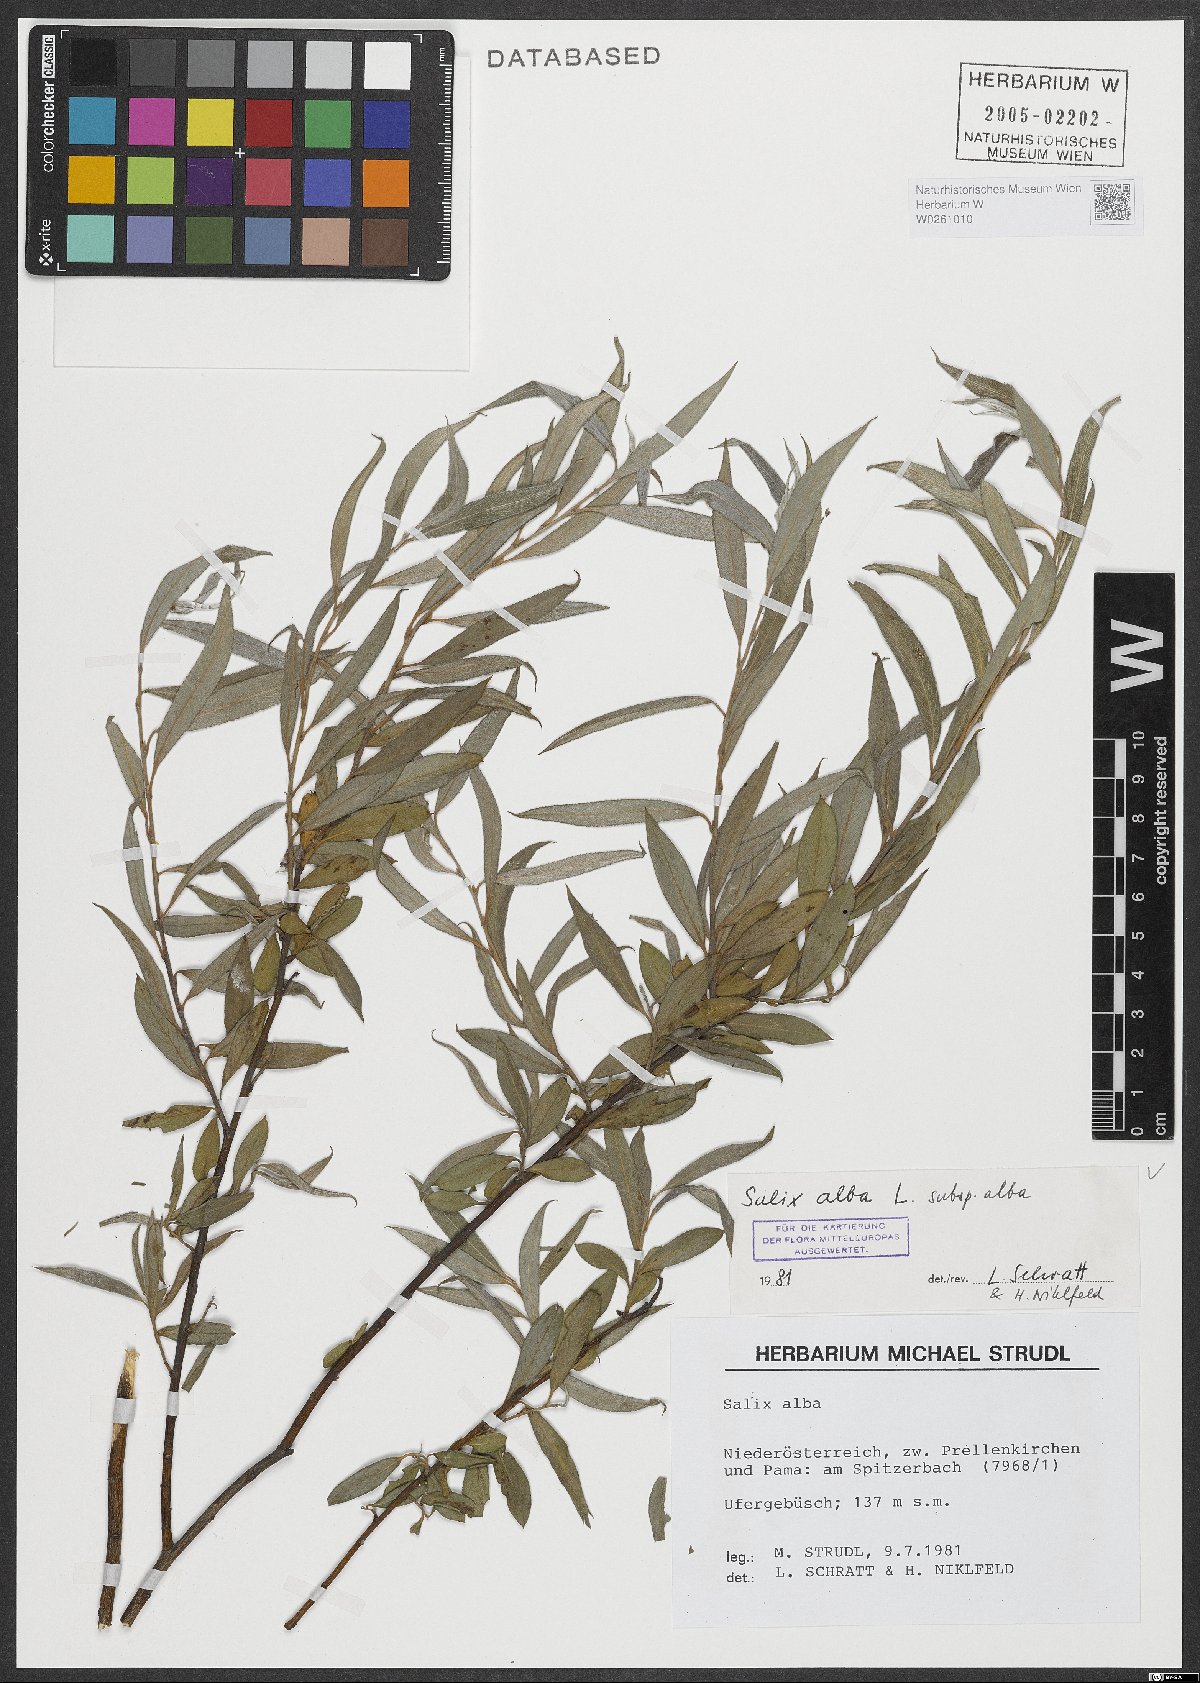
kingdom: Plantae
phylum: Tracheophyta
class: Magnoliopsida
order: Malpighiales
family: Salicaceae
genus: Salix
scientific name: Salix alba
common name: White willow
